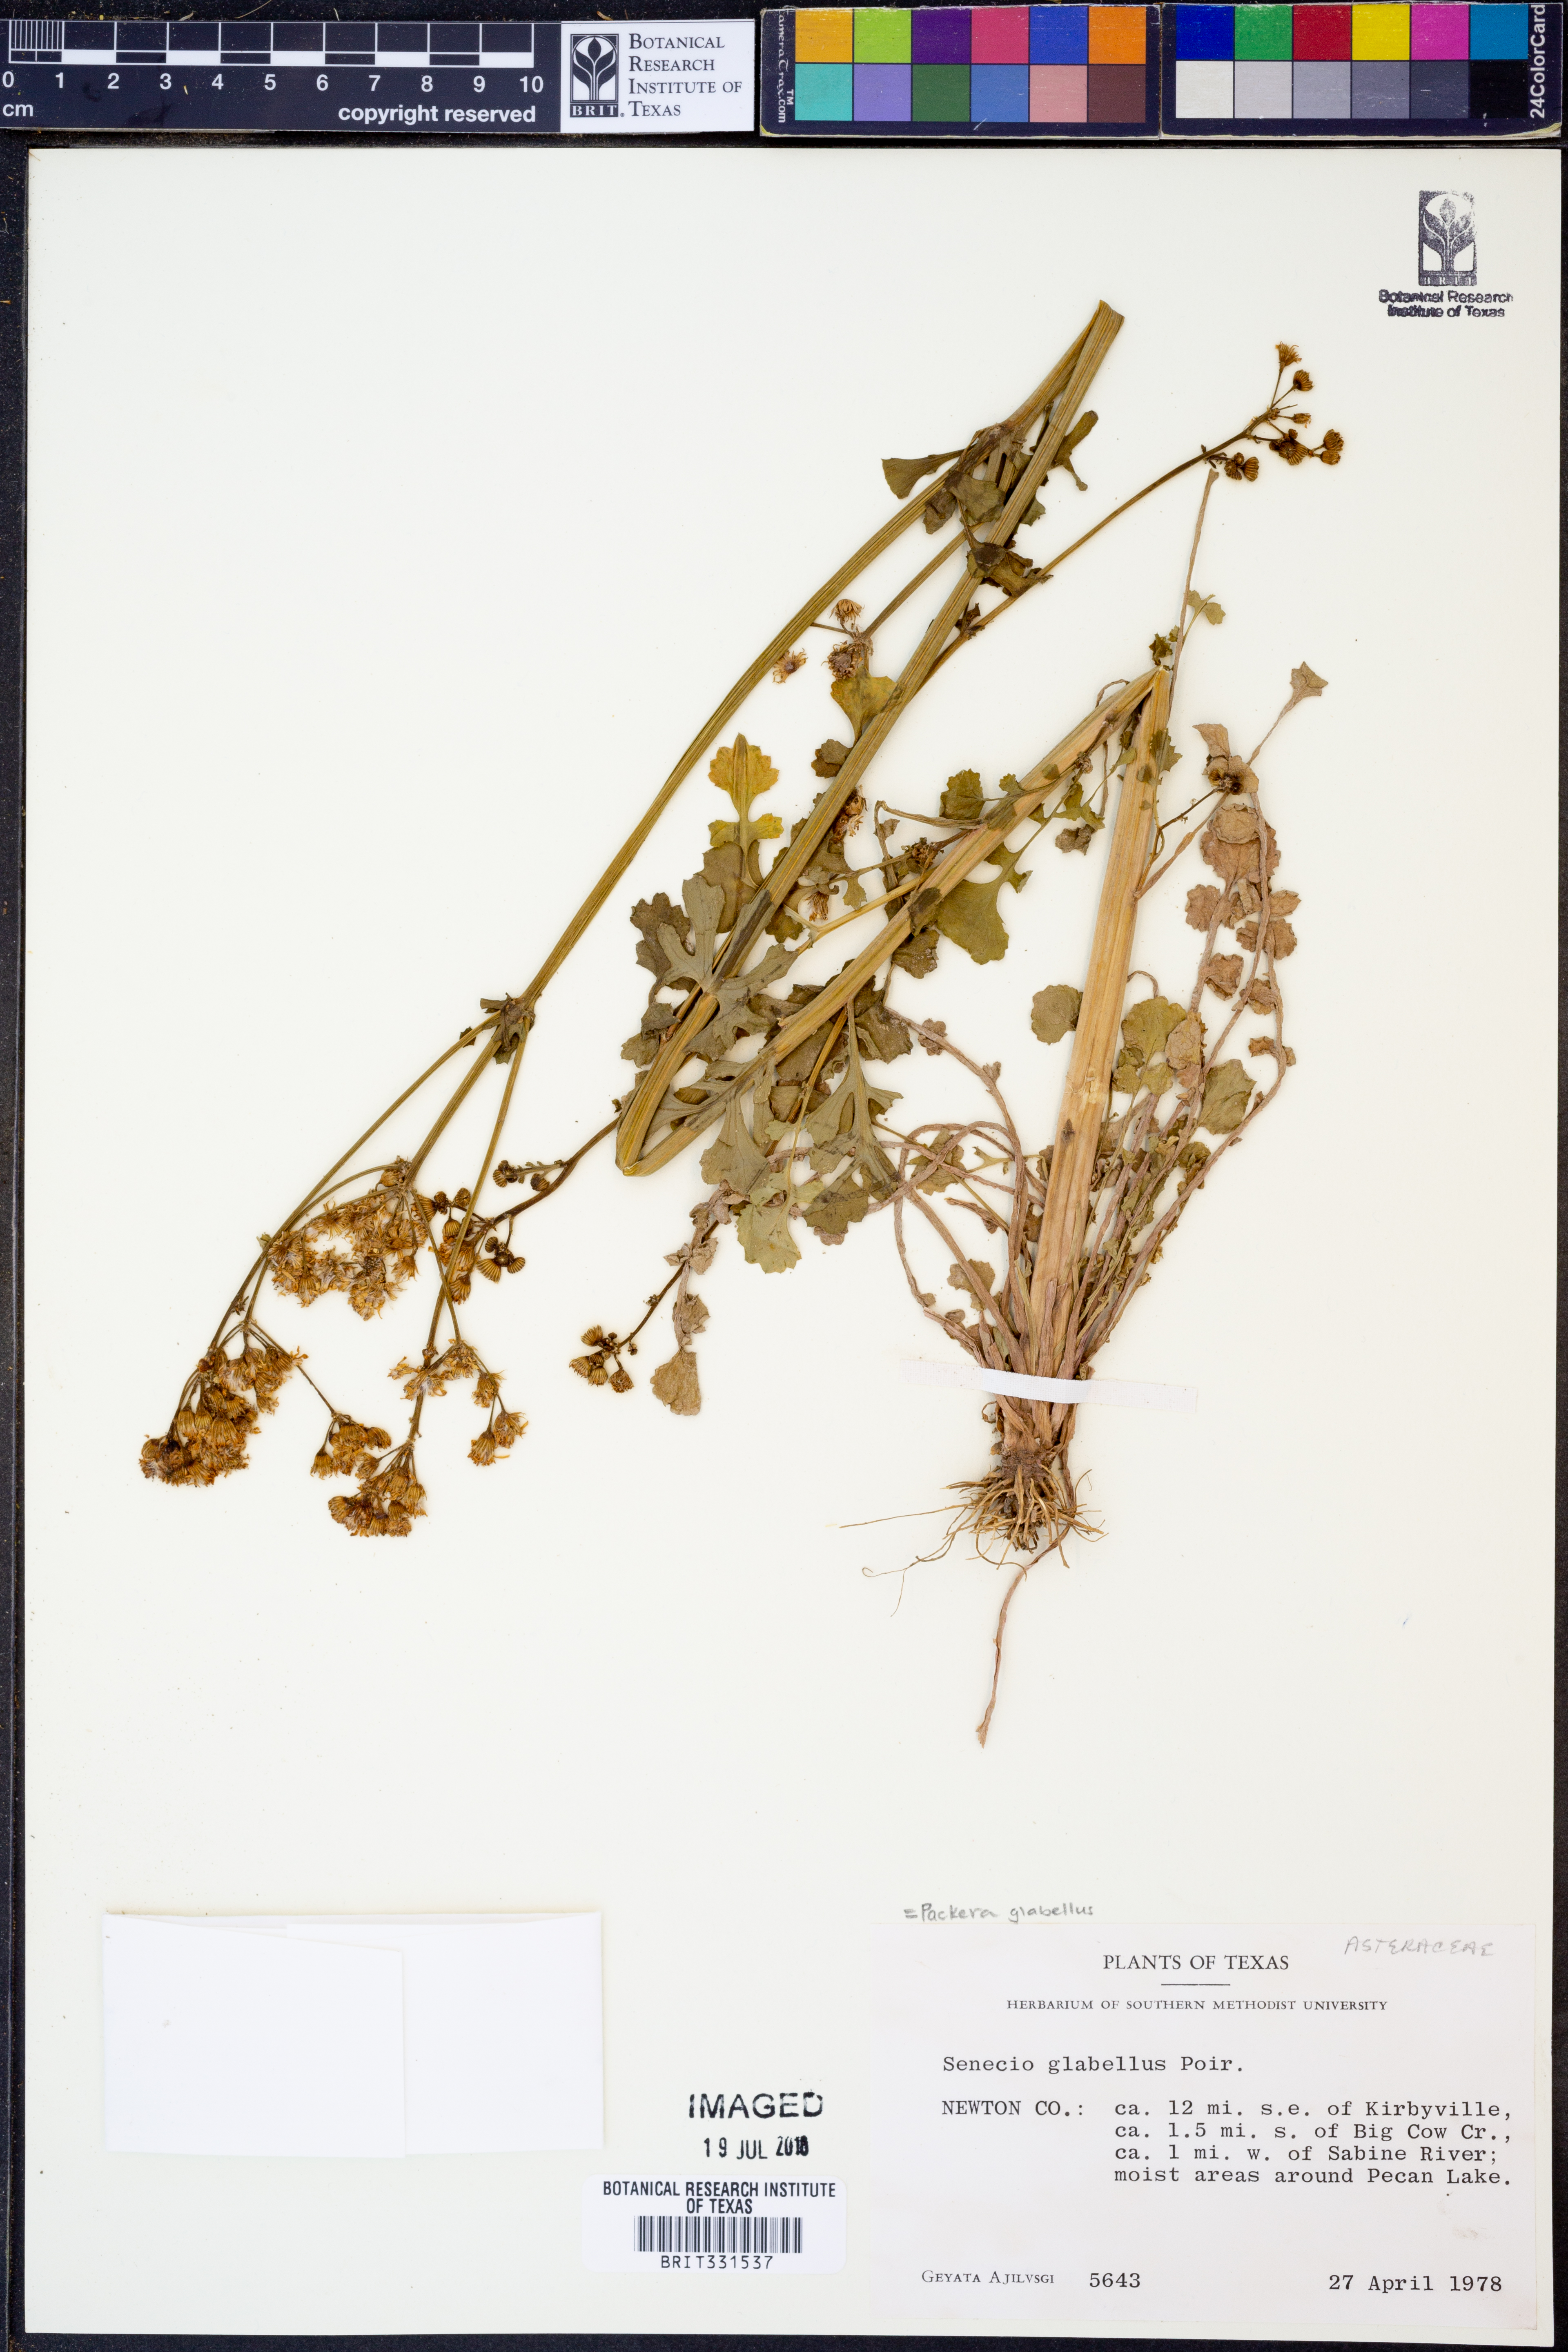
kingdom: Plantae
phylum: Tracheophyta
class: Magnoliopsida
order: Asterales
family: Asteraceae
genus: Packera
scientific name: Packera glabella
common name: Butterweed
